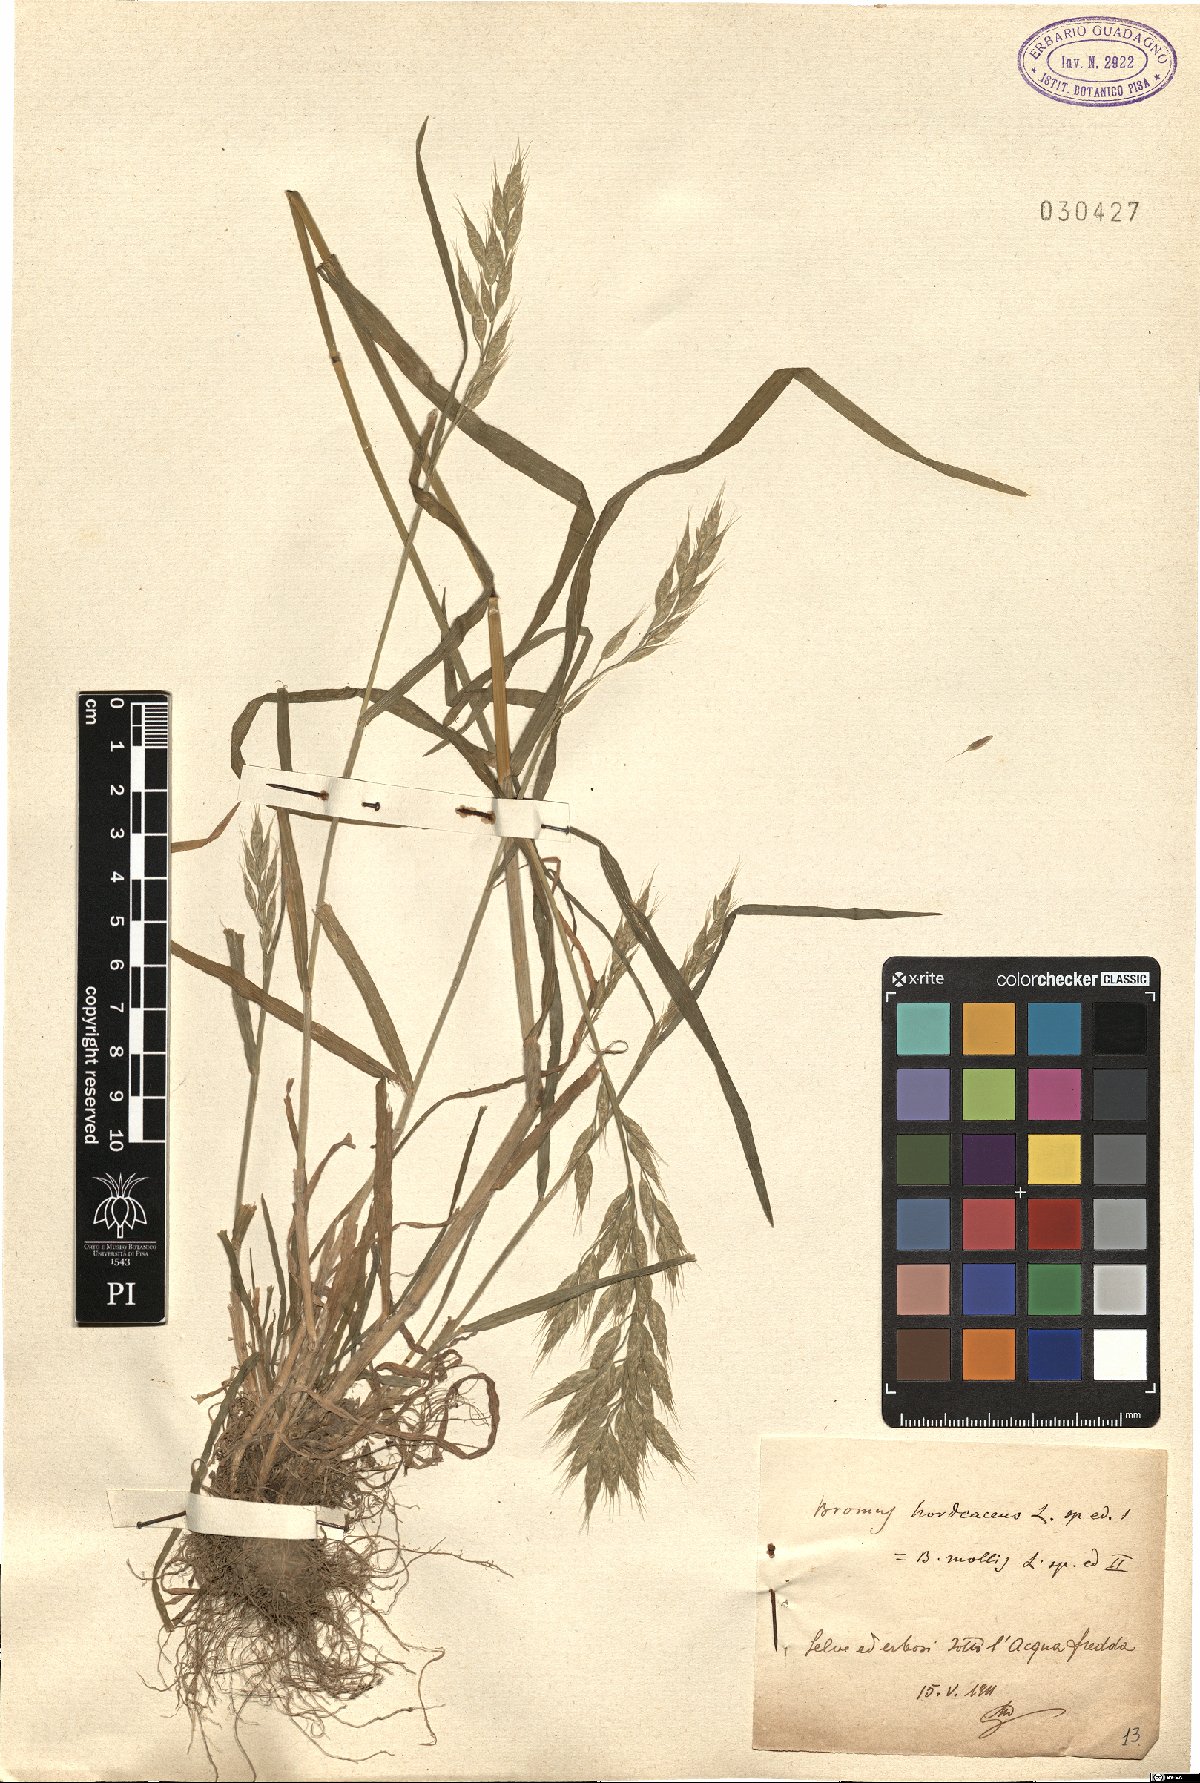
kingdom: Plantae
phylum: Tracheophyta
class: Liliopsida
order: Poales
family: Poaceae
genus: Bromus
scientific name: Bromus hordeaceus
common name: Soft brome
